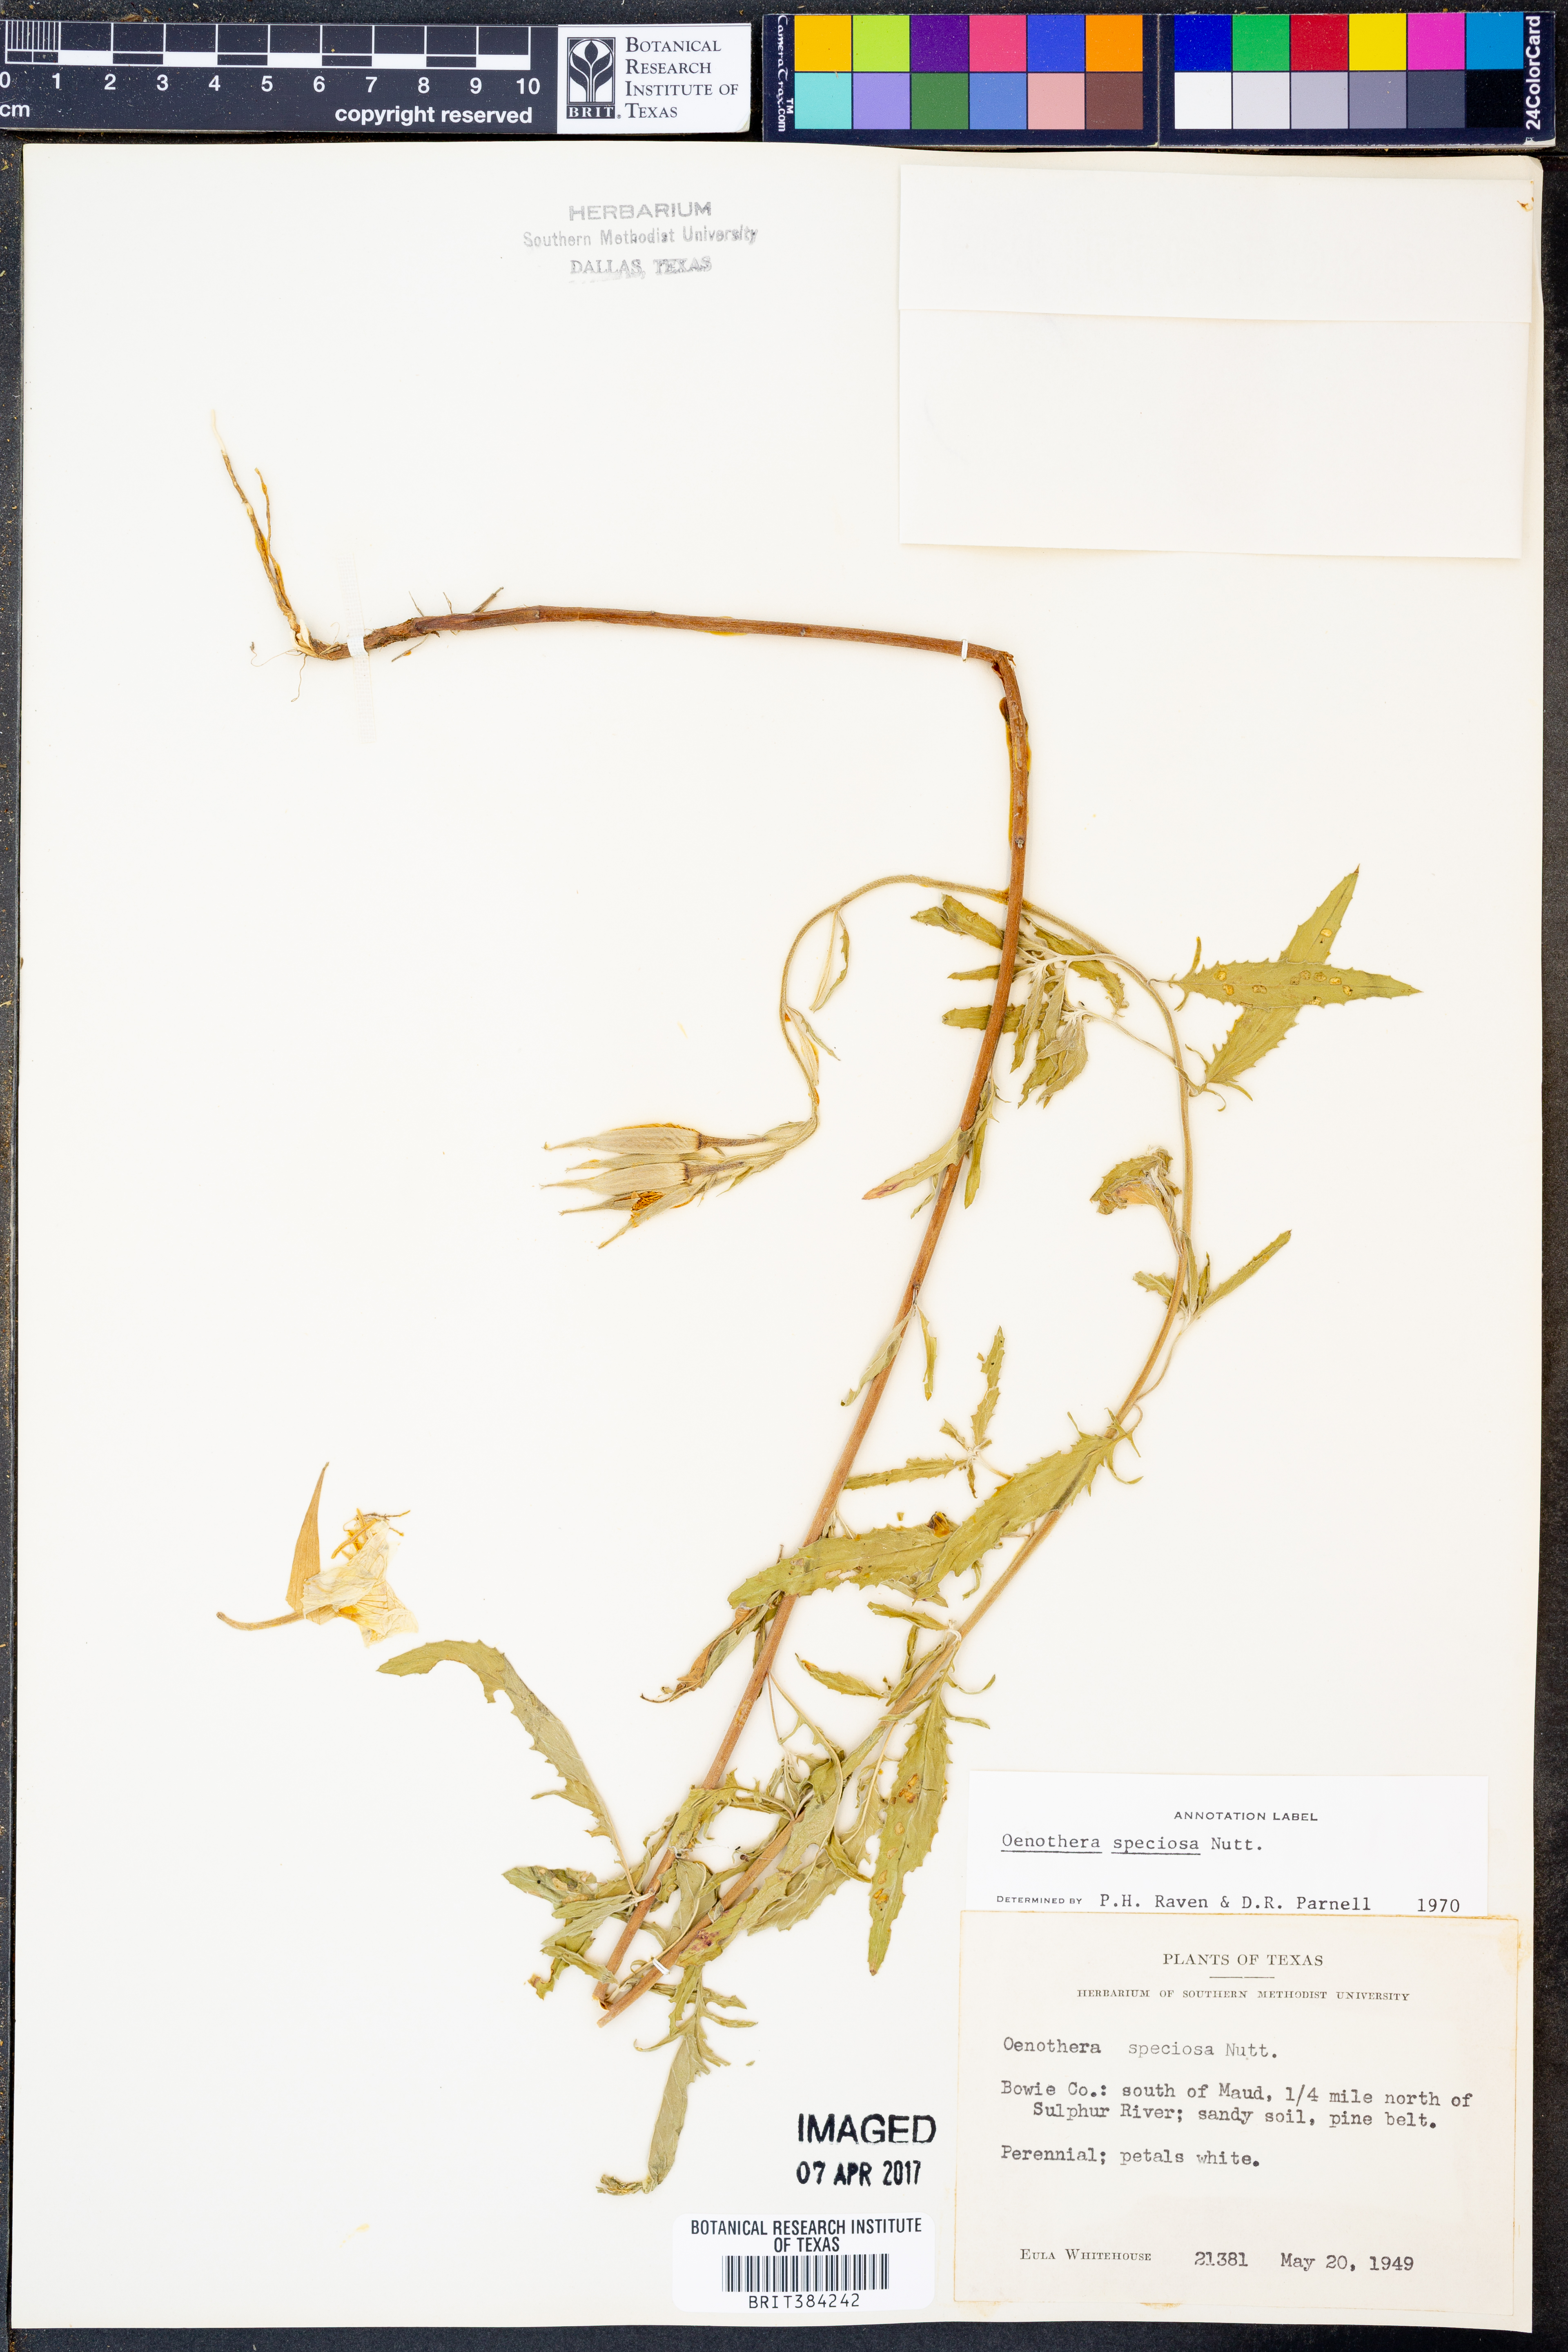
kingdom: Plantae
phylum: Tracheophyta
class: Magnoliopsida
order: Myrtales
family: Onagraceae
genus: Oenothera
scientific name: Oenothera speciosa
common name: White evening-primrose
